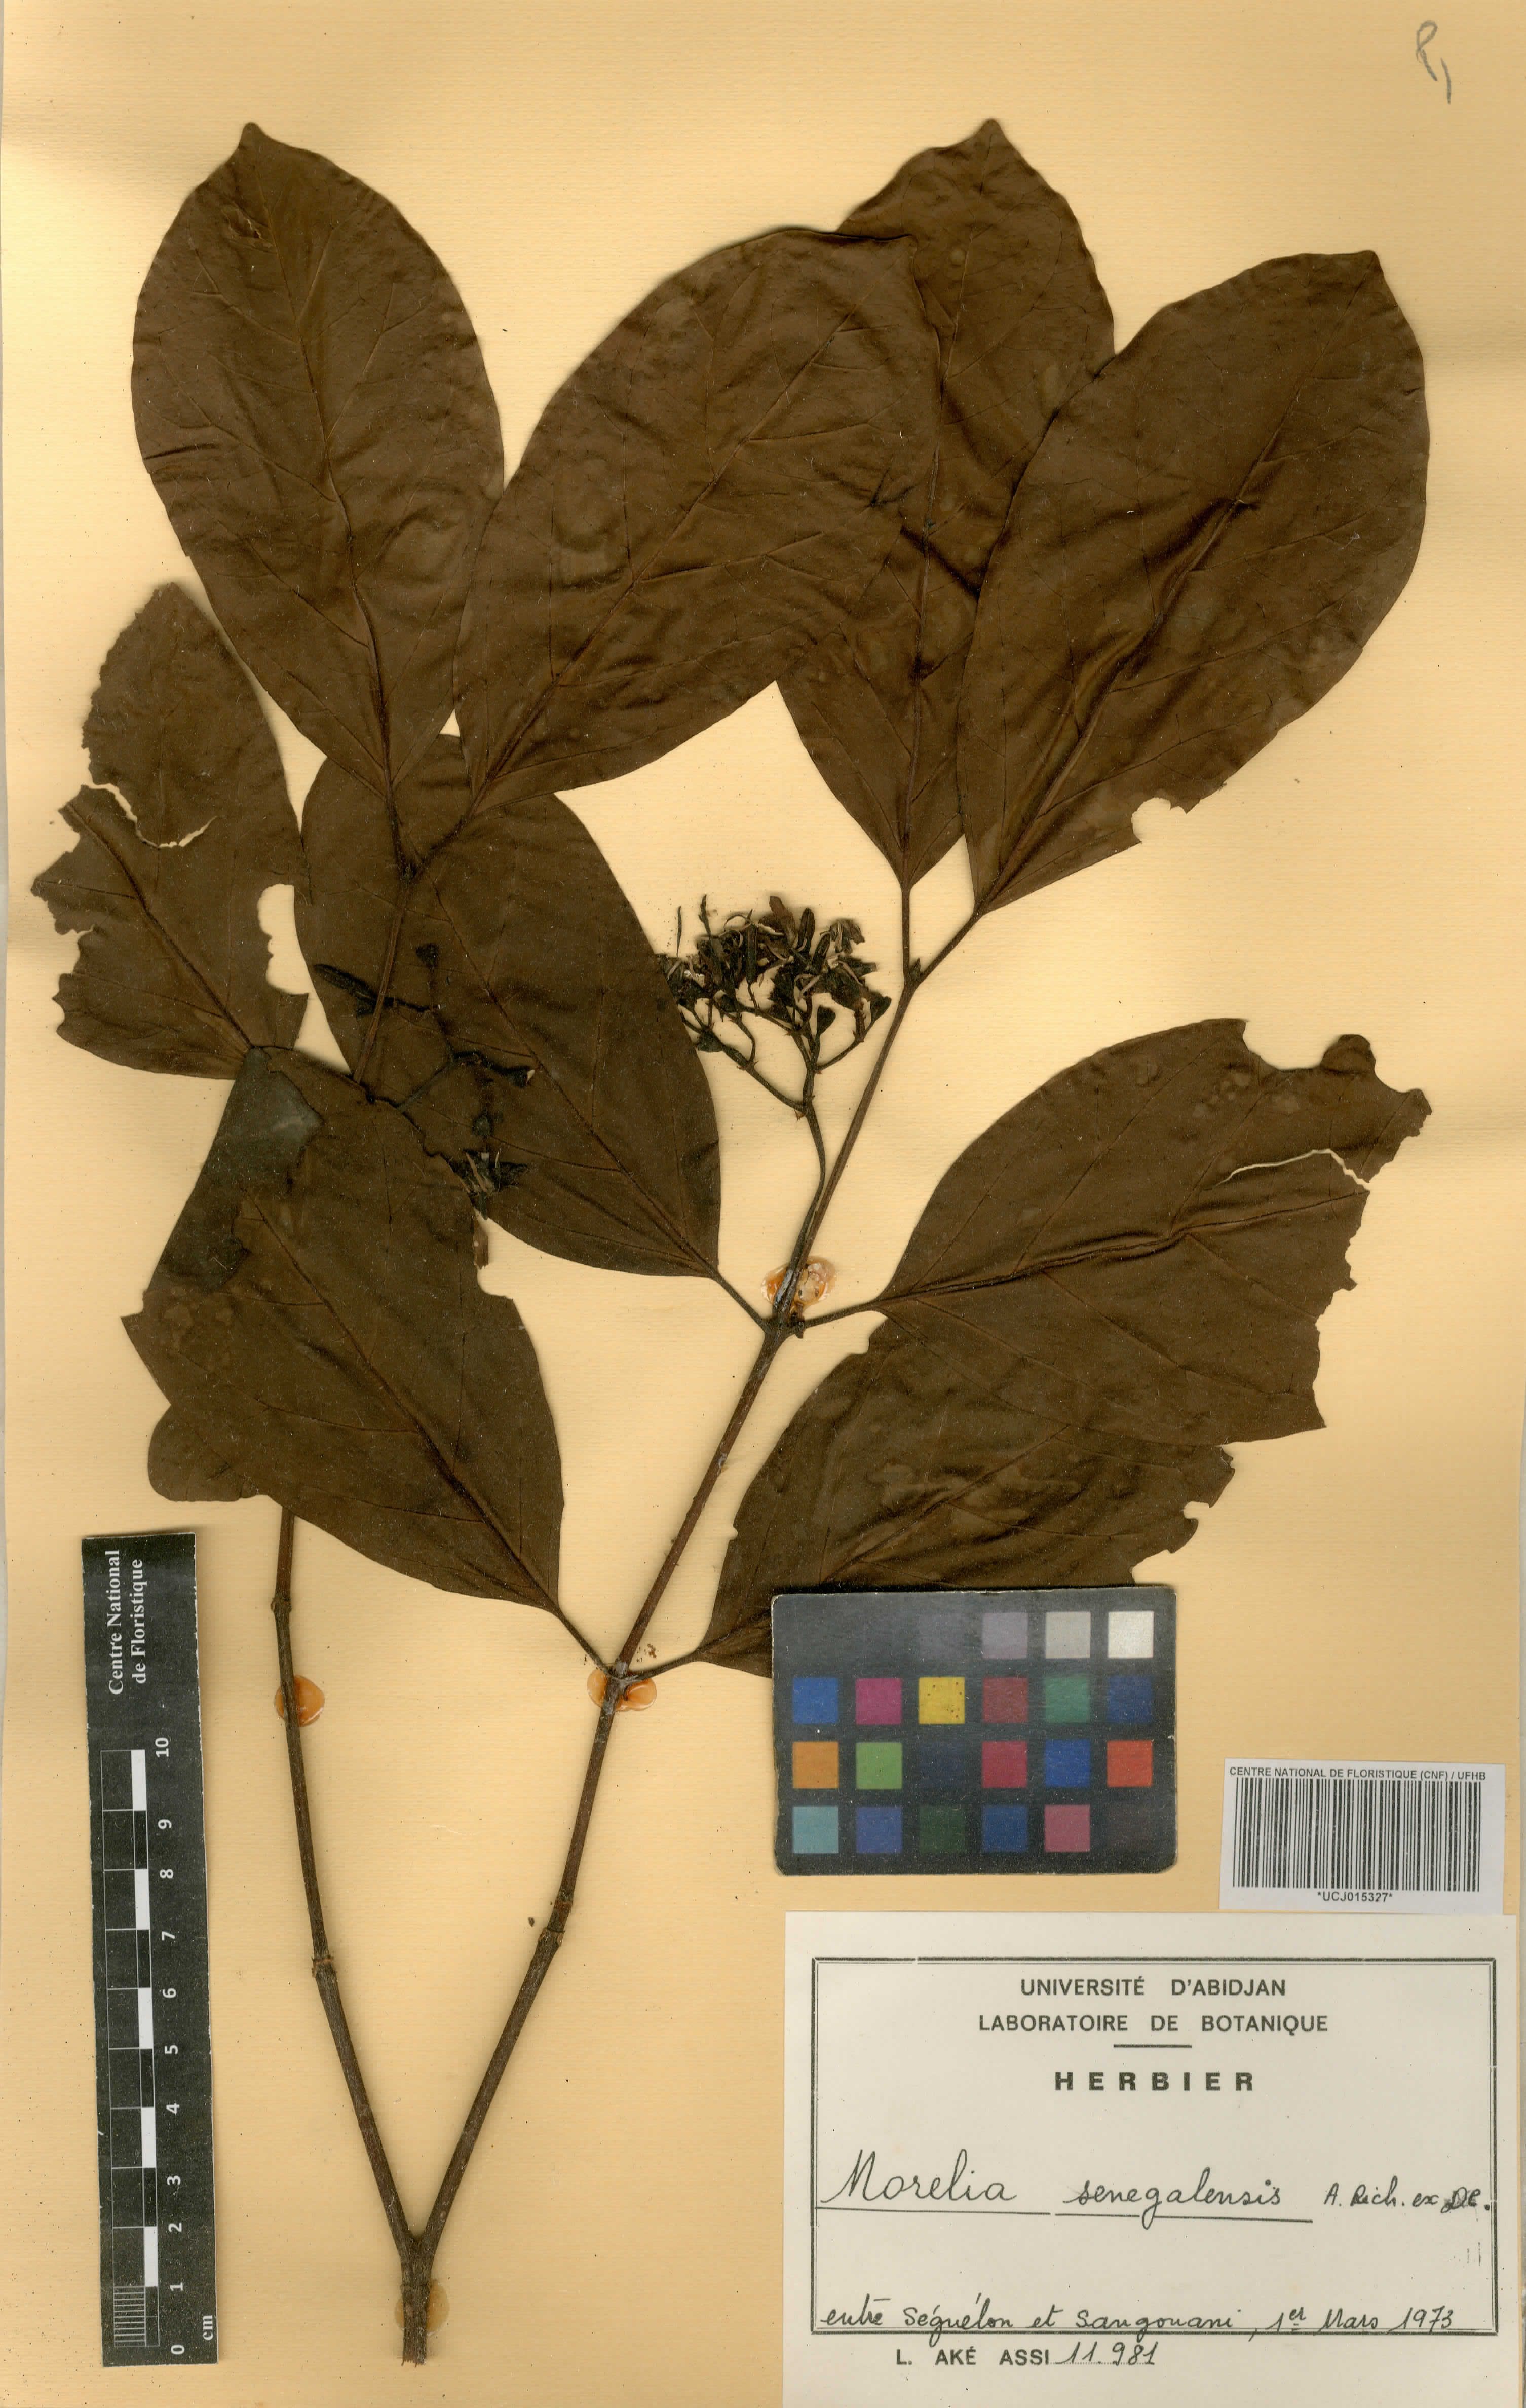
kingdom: Plantae
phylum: Tracheophyta
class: Magnoliopsida
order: Gentianales
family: Rubiaceae
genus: Morelia
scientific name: Morelia senegalensis
